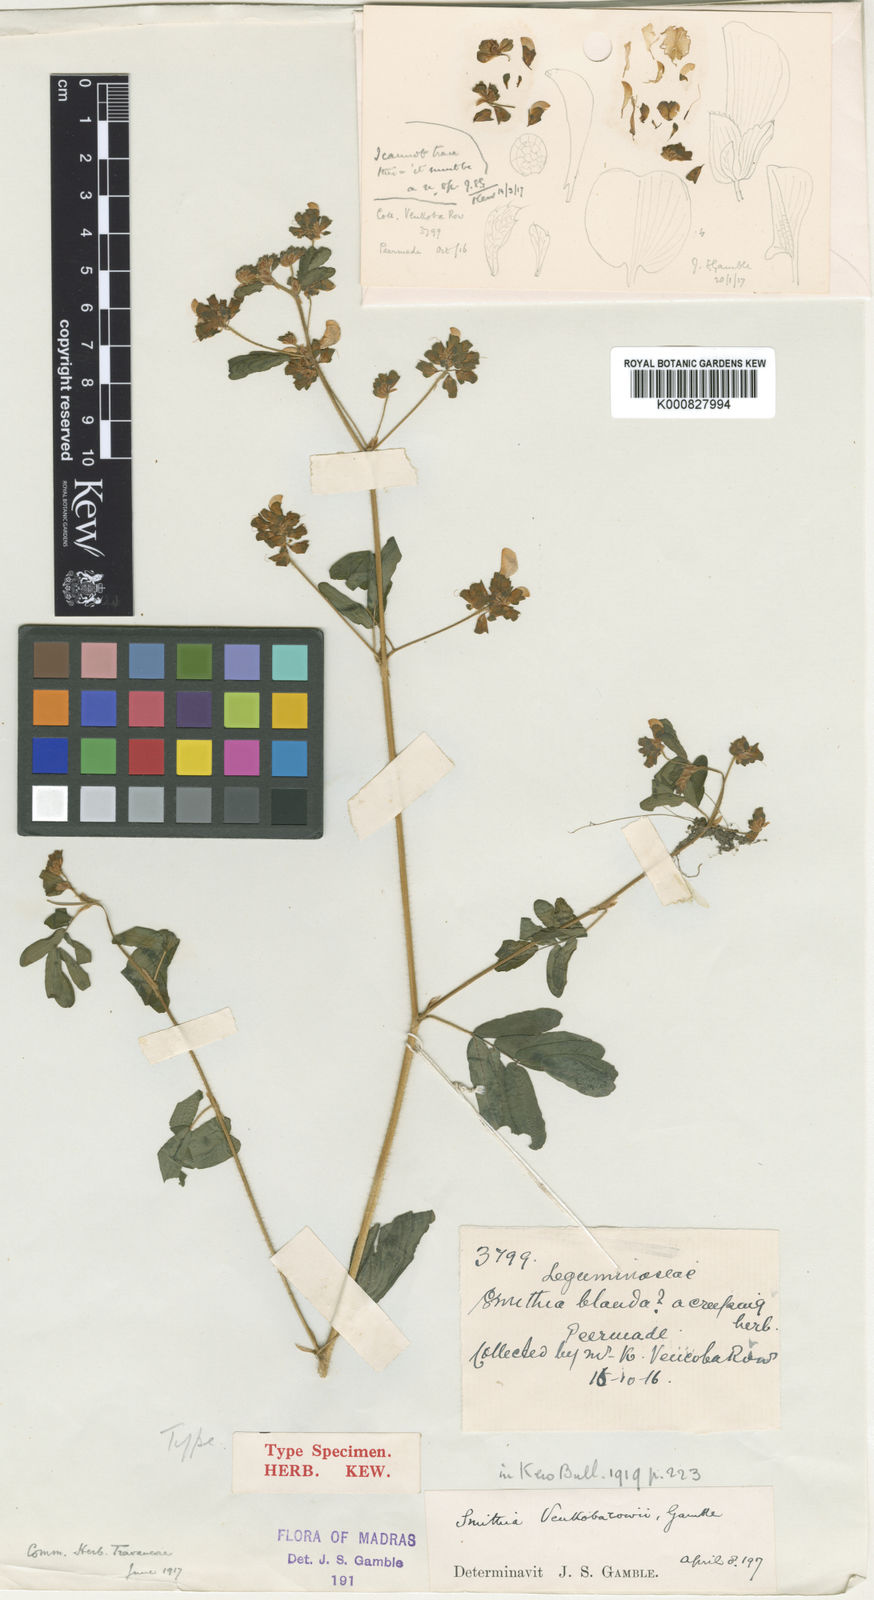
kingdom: Plantae
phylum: Tracheophyta
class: Magnoliopsida
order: Fabales
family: Fabaceae
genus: Smithia
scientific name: Smithia venkobarowii
